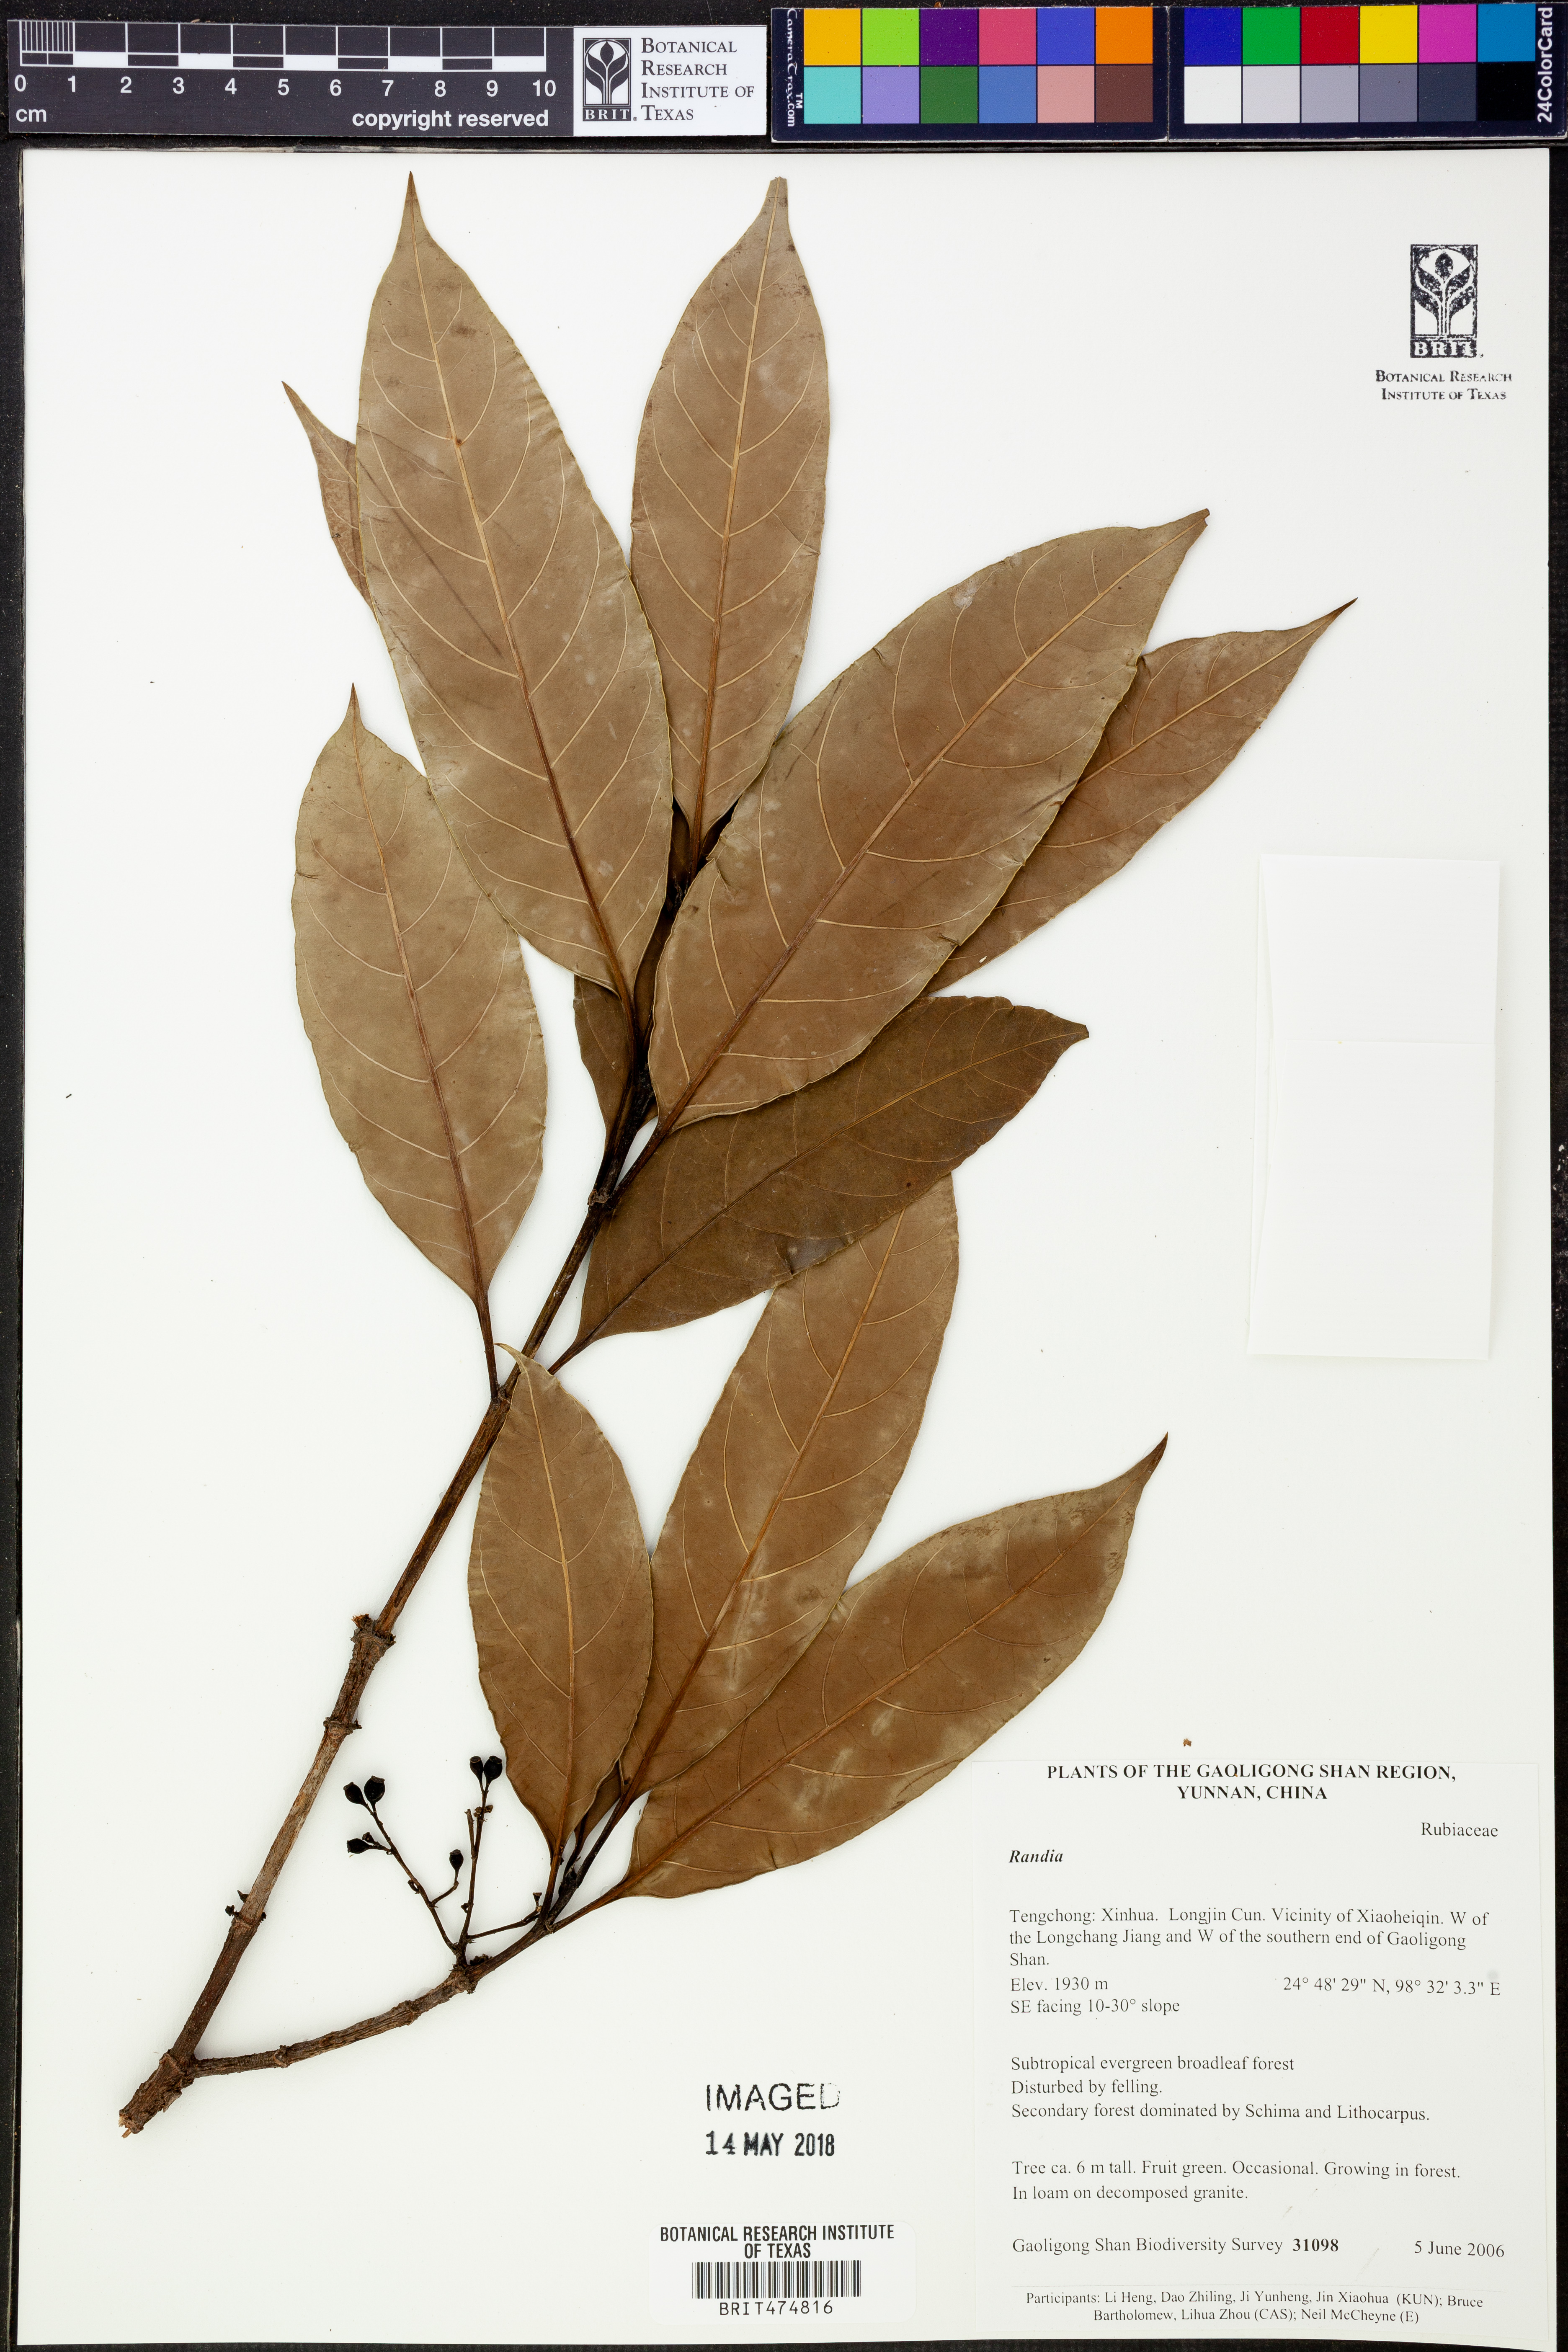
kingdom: Plantae
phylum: Tracheophyta
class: Magnoliopsida
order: Gentianales
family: Rubiaceae
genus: Randia
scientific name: Randia
